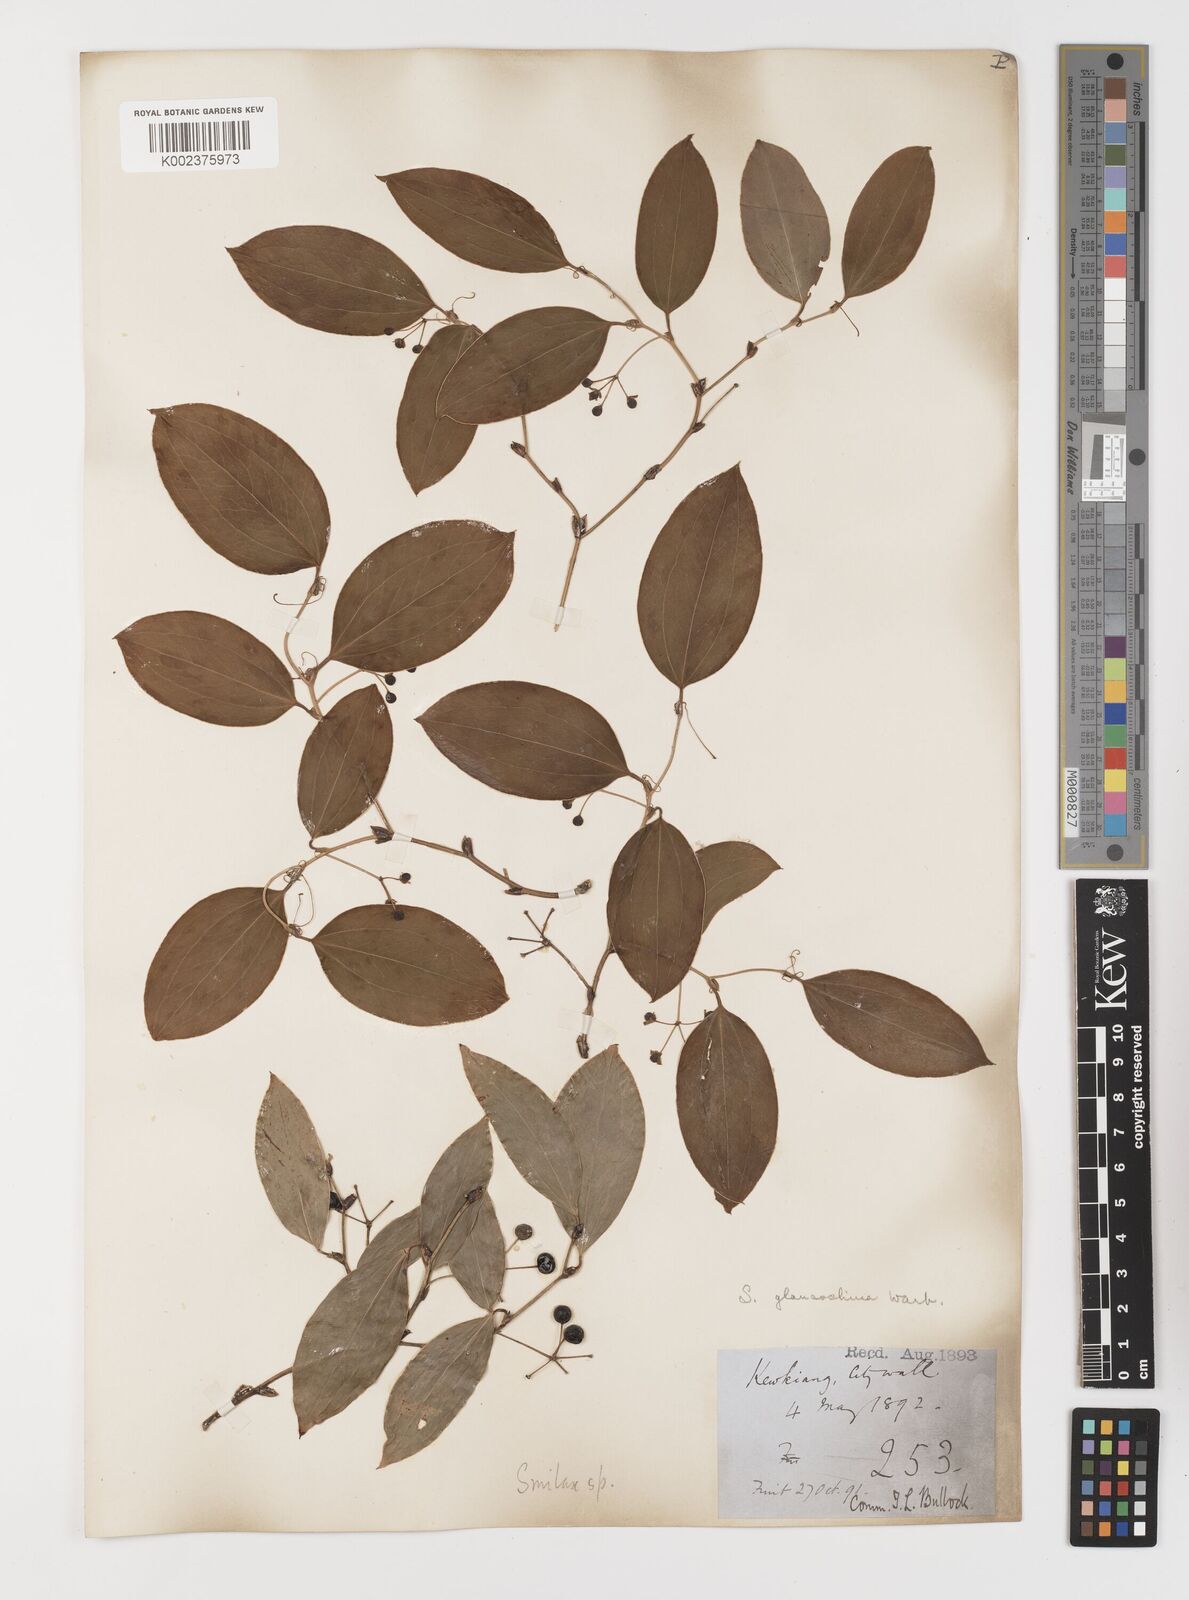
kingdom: Plantae
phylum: Tracheophyta
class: Liliopsida
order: Liliales
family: Smilacaceae
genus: Smilax
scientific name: Smilax glaucochina
